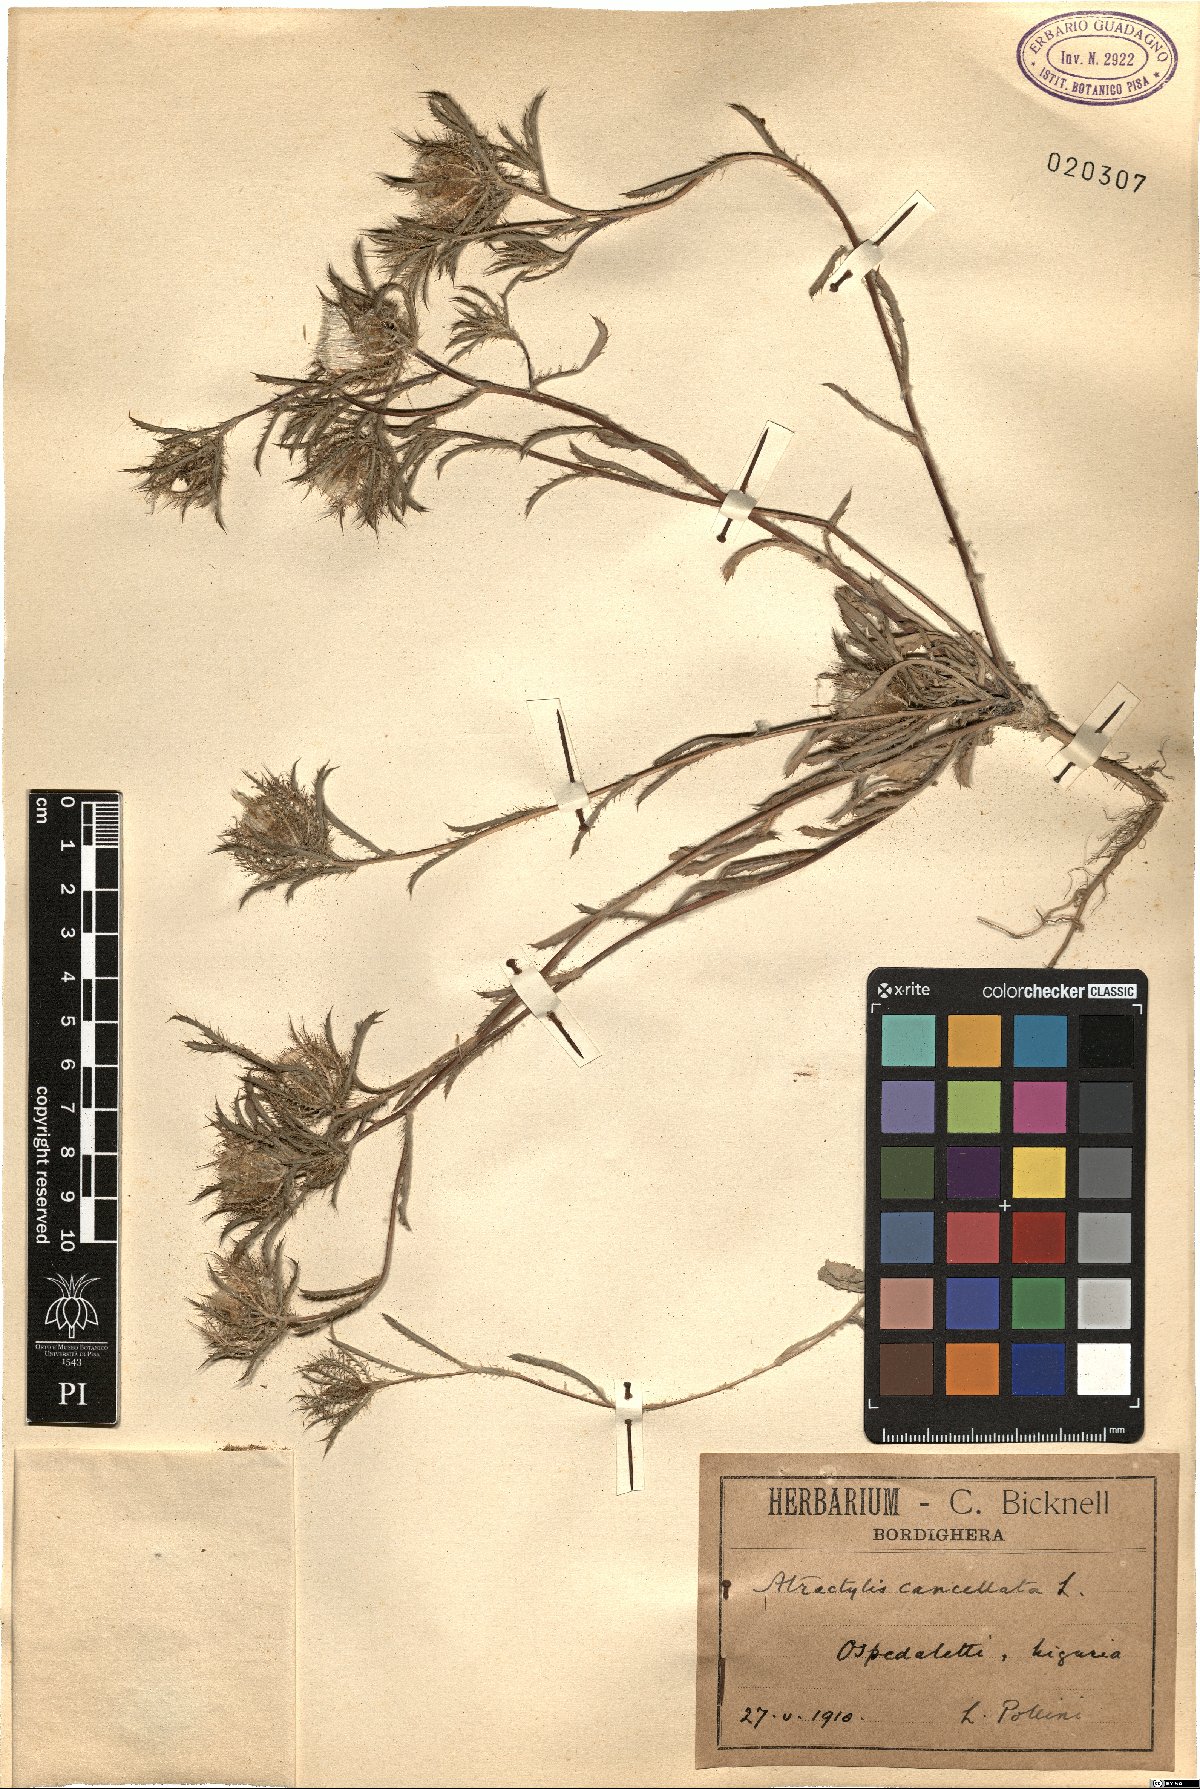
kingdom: Plantae
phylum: Tracheophyta
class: Magnoliopsida
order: Asterales
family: Asteraceae
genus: Atractylis
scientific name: Atractylis cancellata
